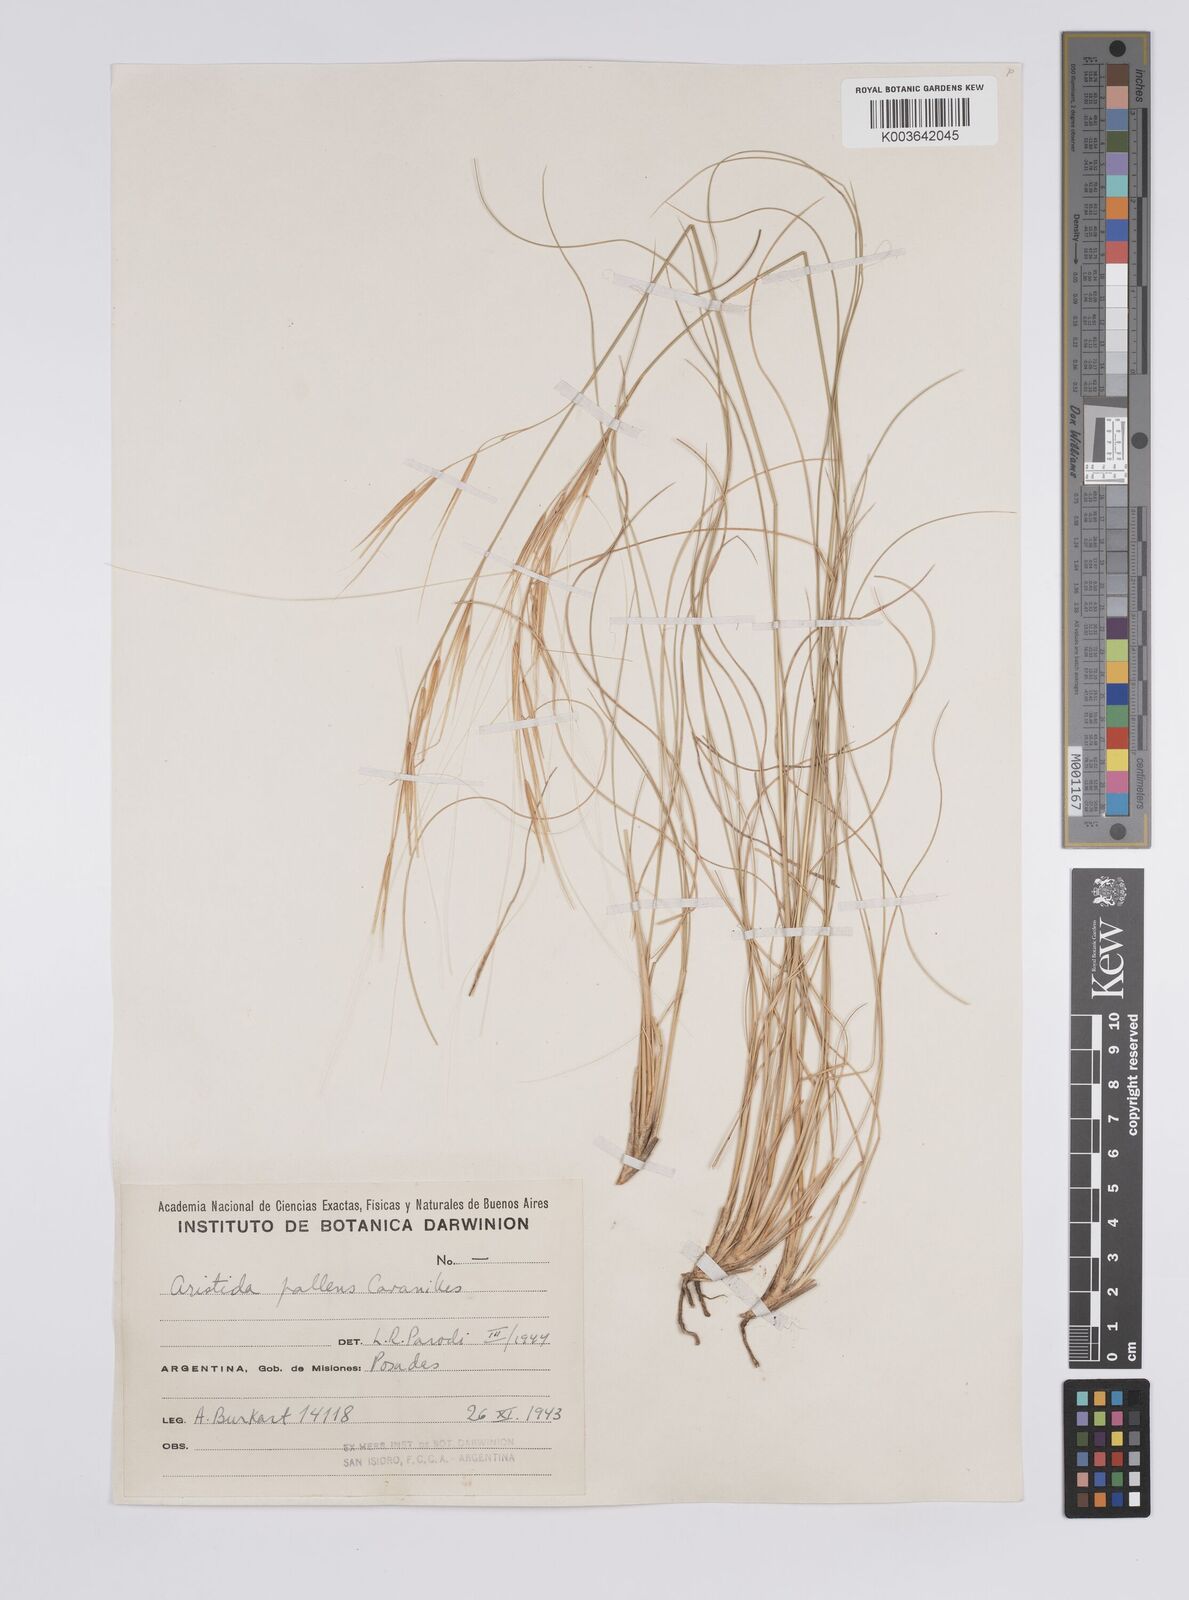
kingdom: Plantae
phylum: Tracheophyta
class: Liliopsida
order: Poales
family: Poaceae
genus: Aristida
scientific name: Aristida pallens
